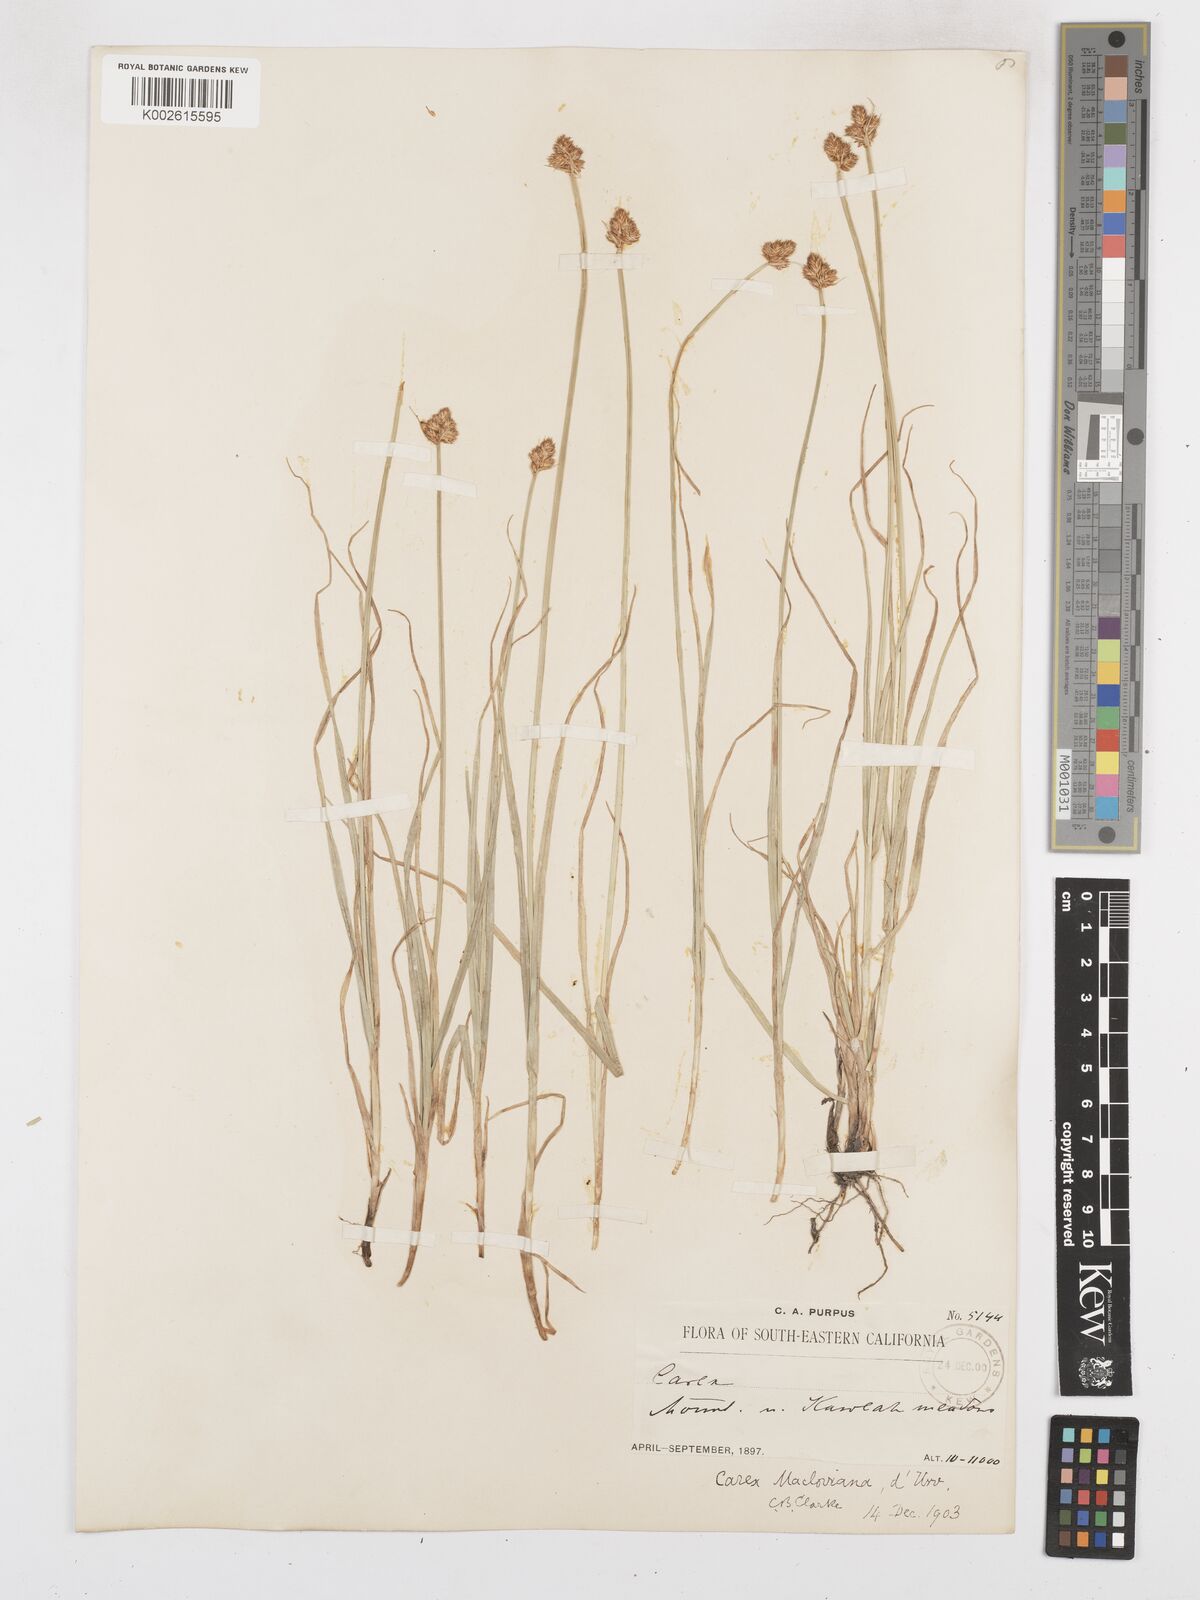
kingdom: Plantae
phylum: Tracheophyta
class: Liliopsida
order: Poales
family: Cyperaceae
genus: Carex
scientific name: Carex macloviana
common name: Falkland island sedge
